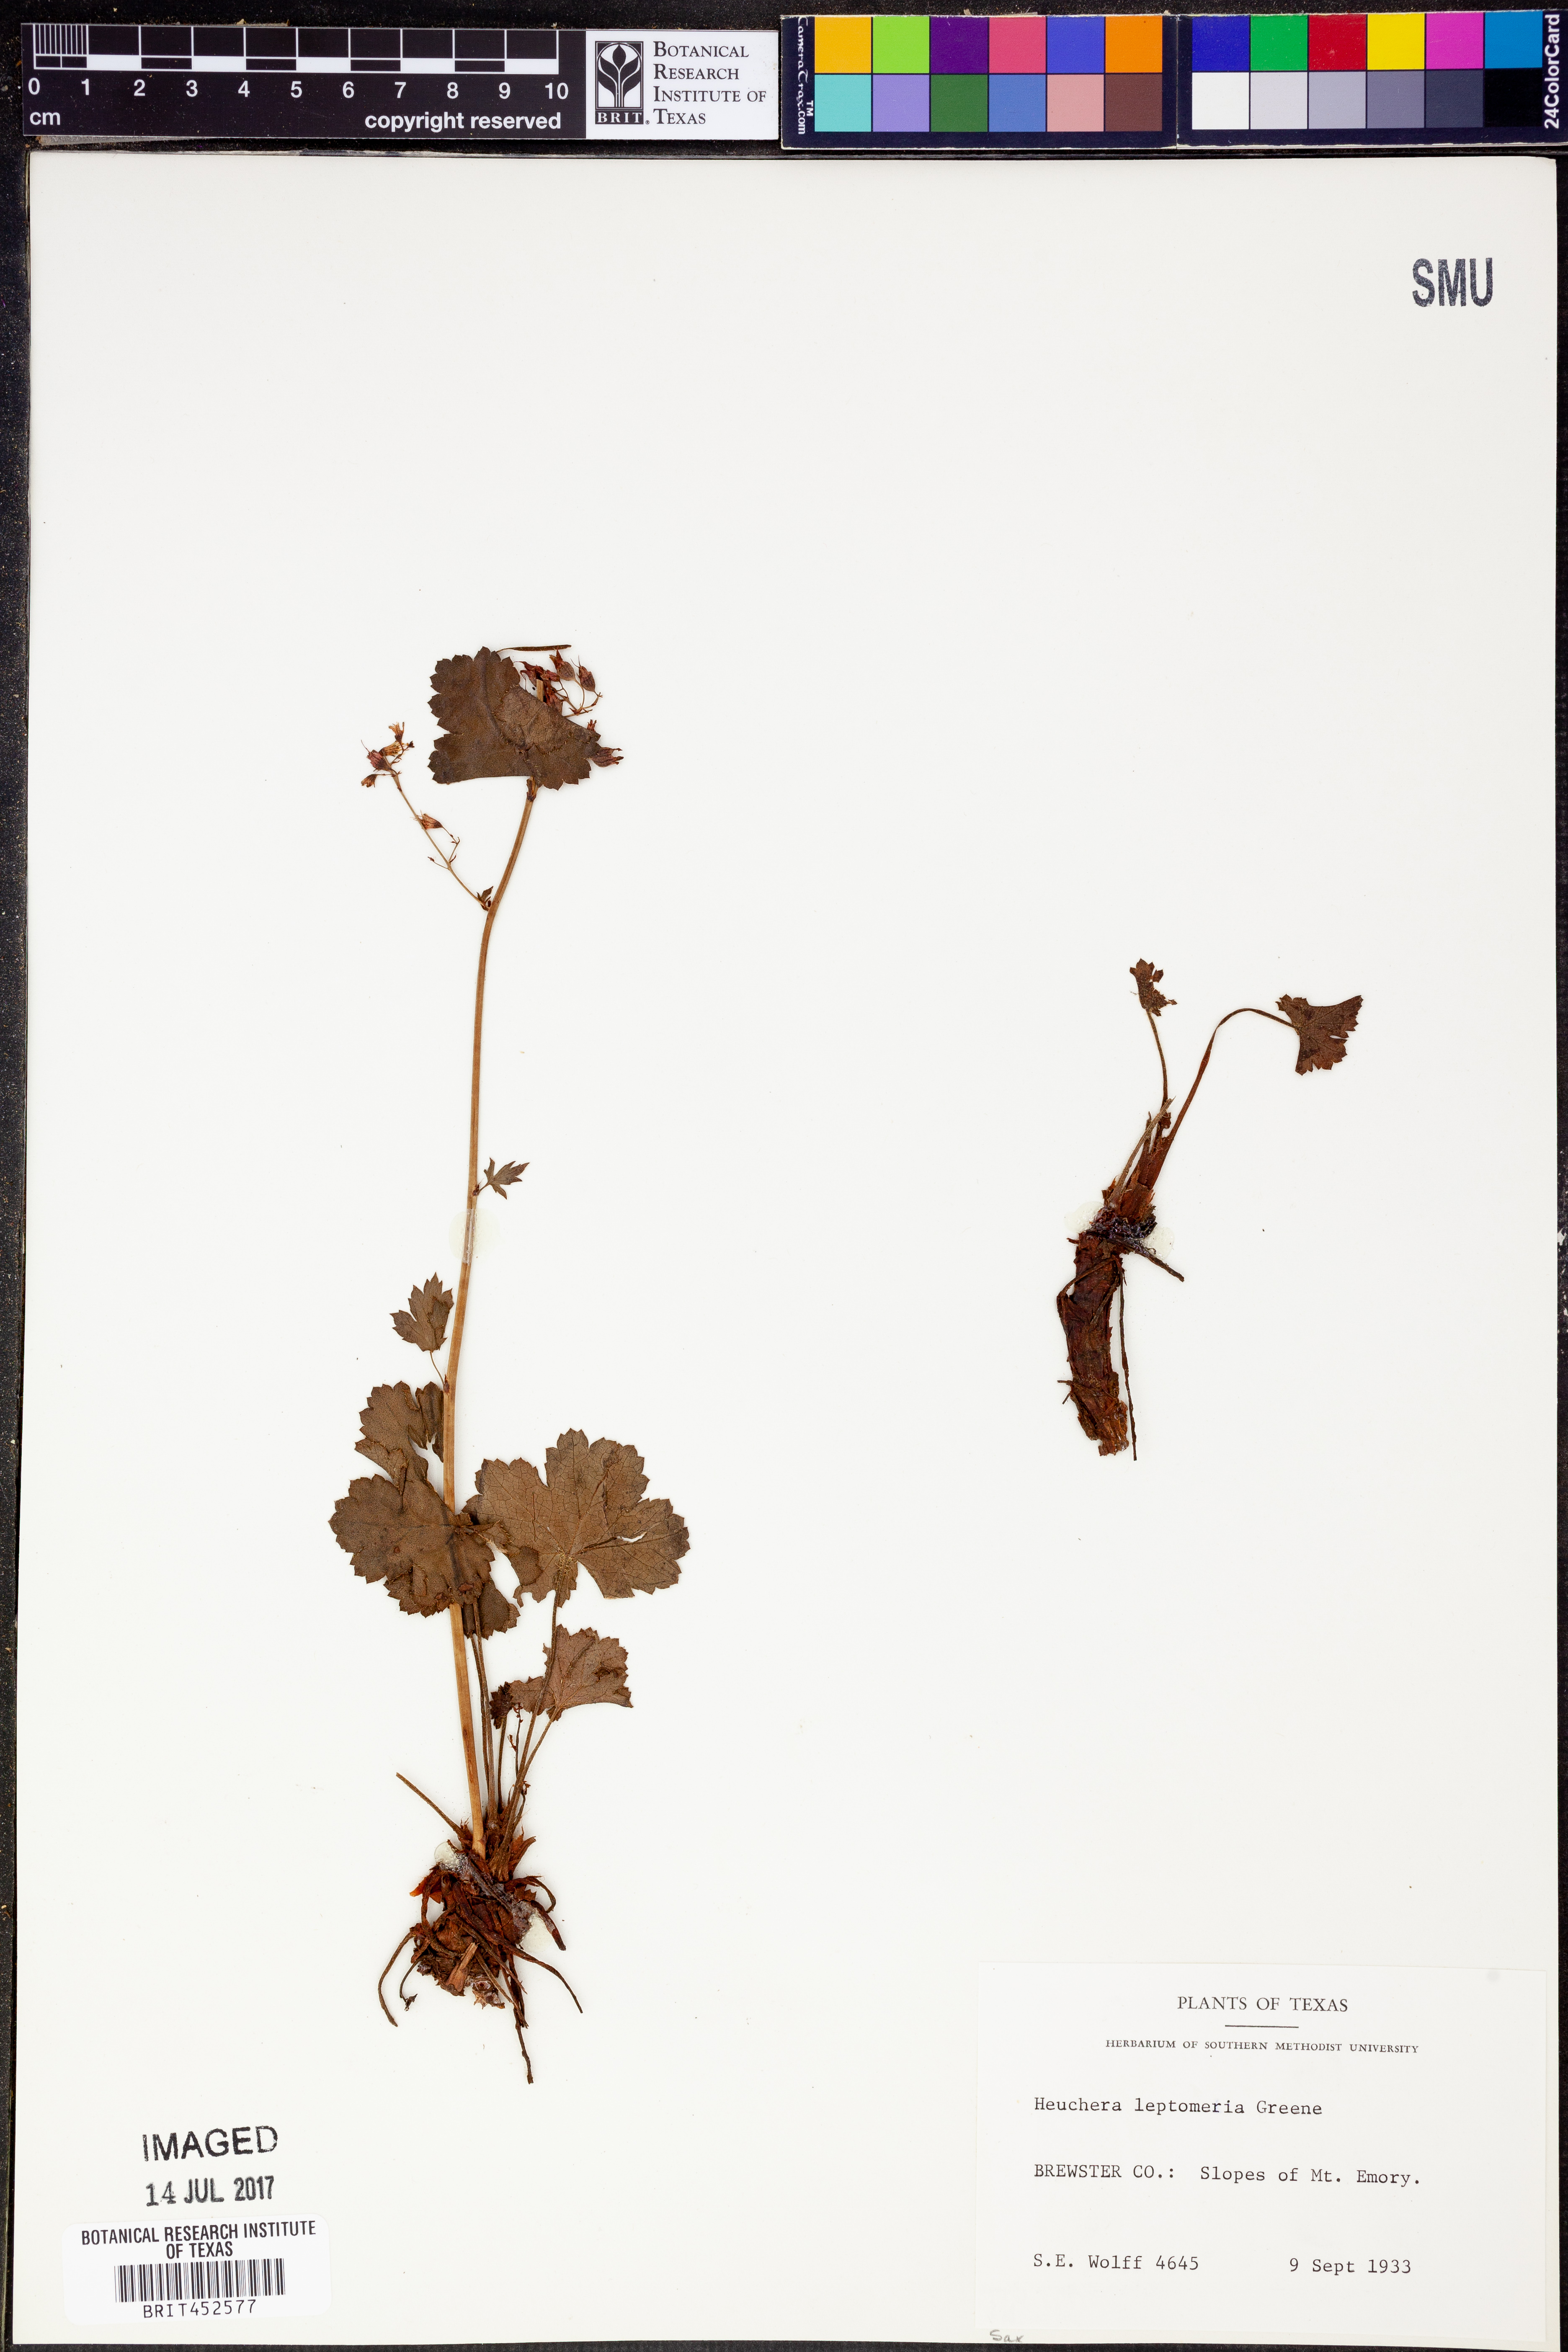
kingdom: Plantae
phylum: Tracheophyta
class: Magnoliopsida
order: Saxifragales
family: Saxifragaceae
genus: Heuchera
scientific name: Heuchera rubescens
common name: Jack-o'the-rocks
